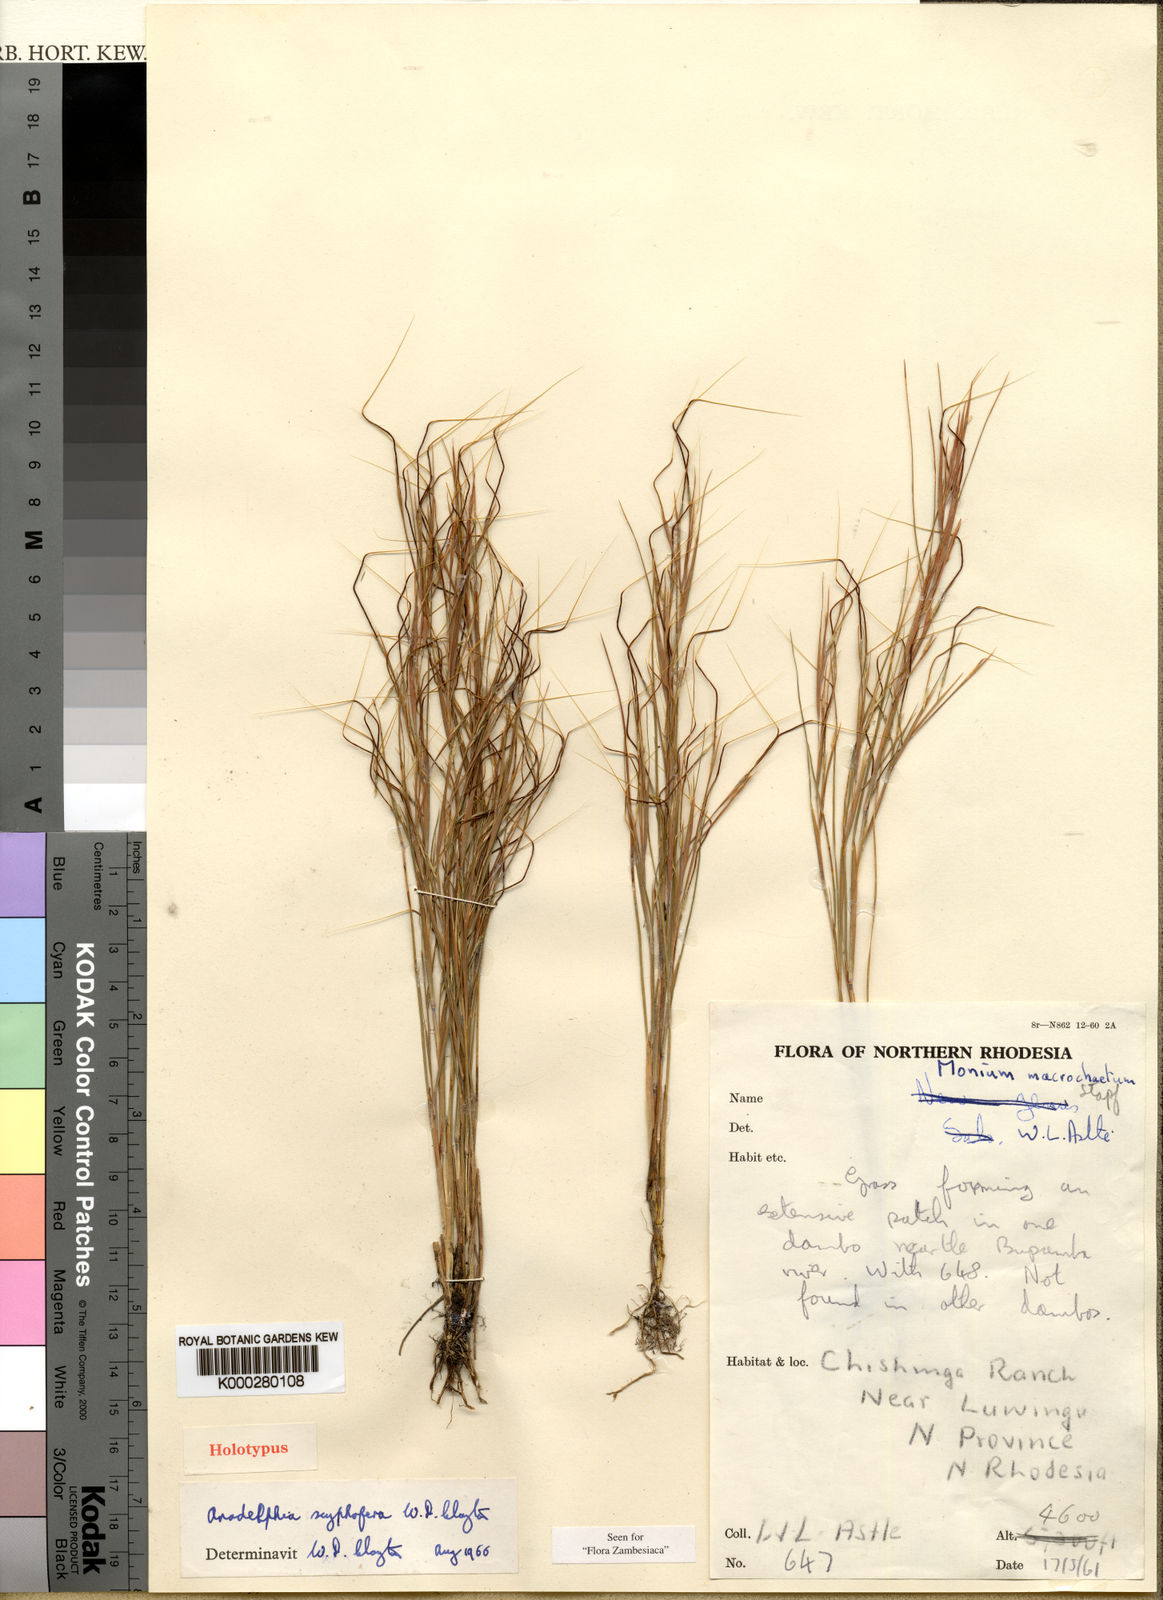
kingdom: Plantae
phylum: Tracheophyta
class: Liliopsida
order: Poales
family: Poaceae
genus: Anadelphia
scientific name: Anadelphia scyphofera
